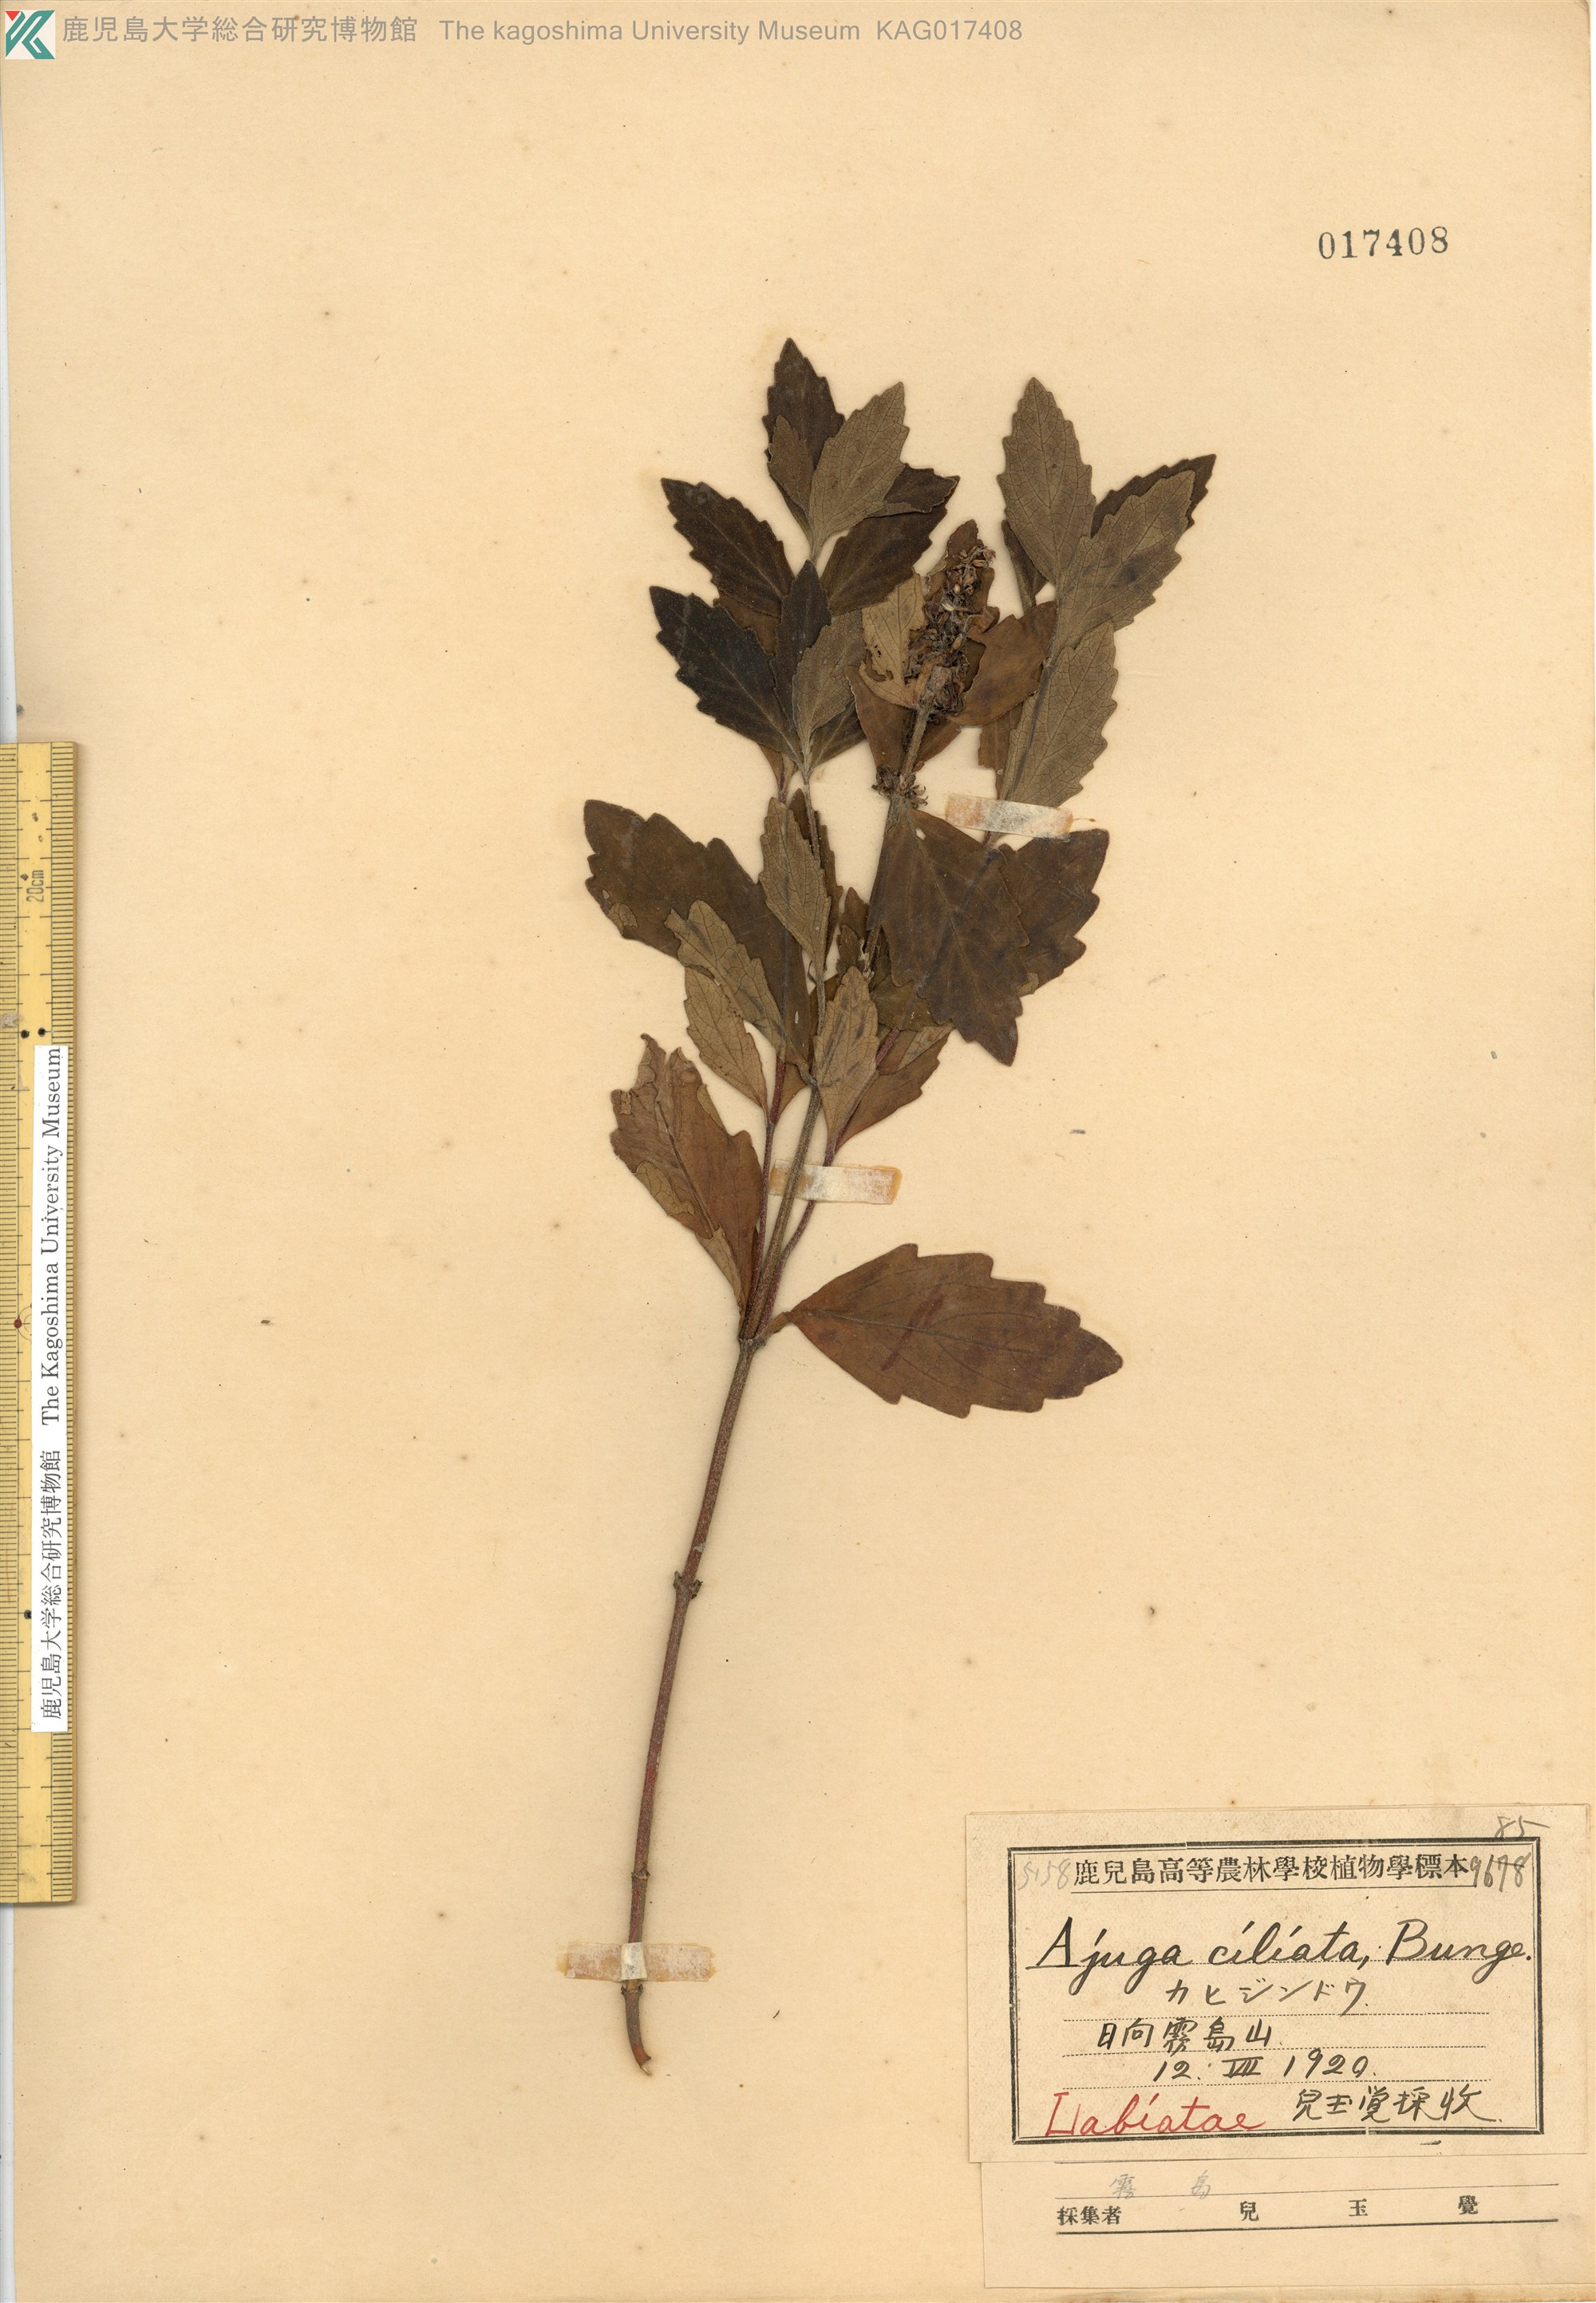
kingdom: Plantae
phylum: Tracheophyta
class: Magnoliopsida
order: Lamiales
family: Lamiaceae
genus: Ajuga
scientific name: Ajuga ciliata
